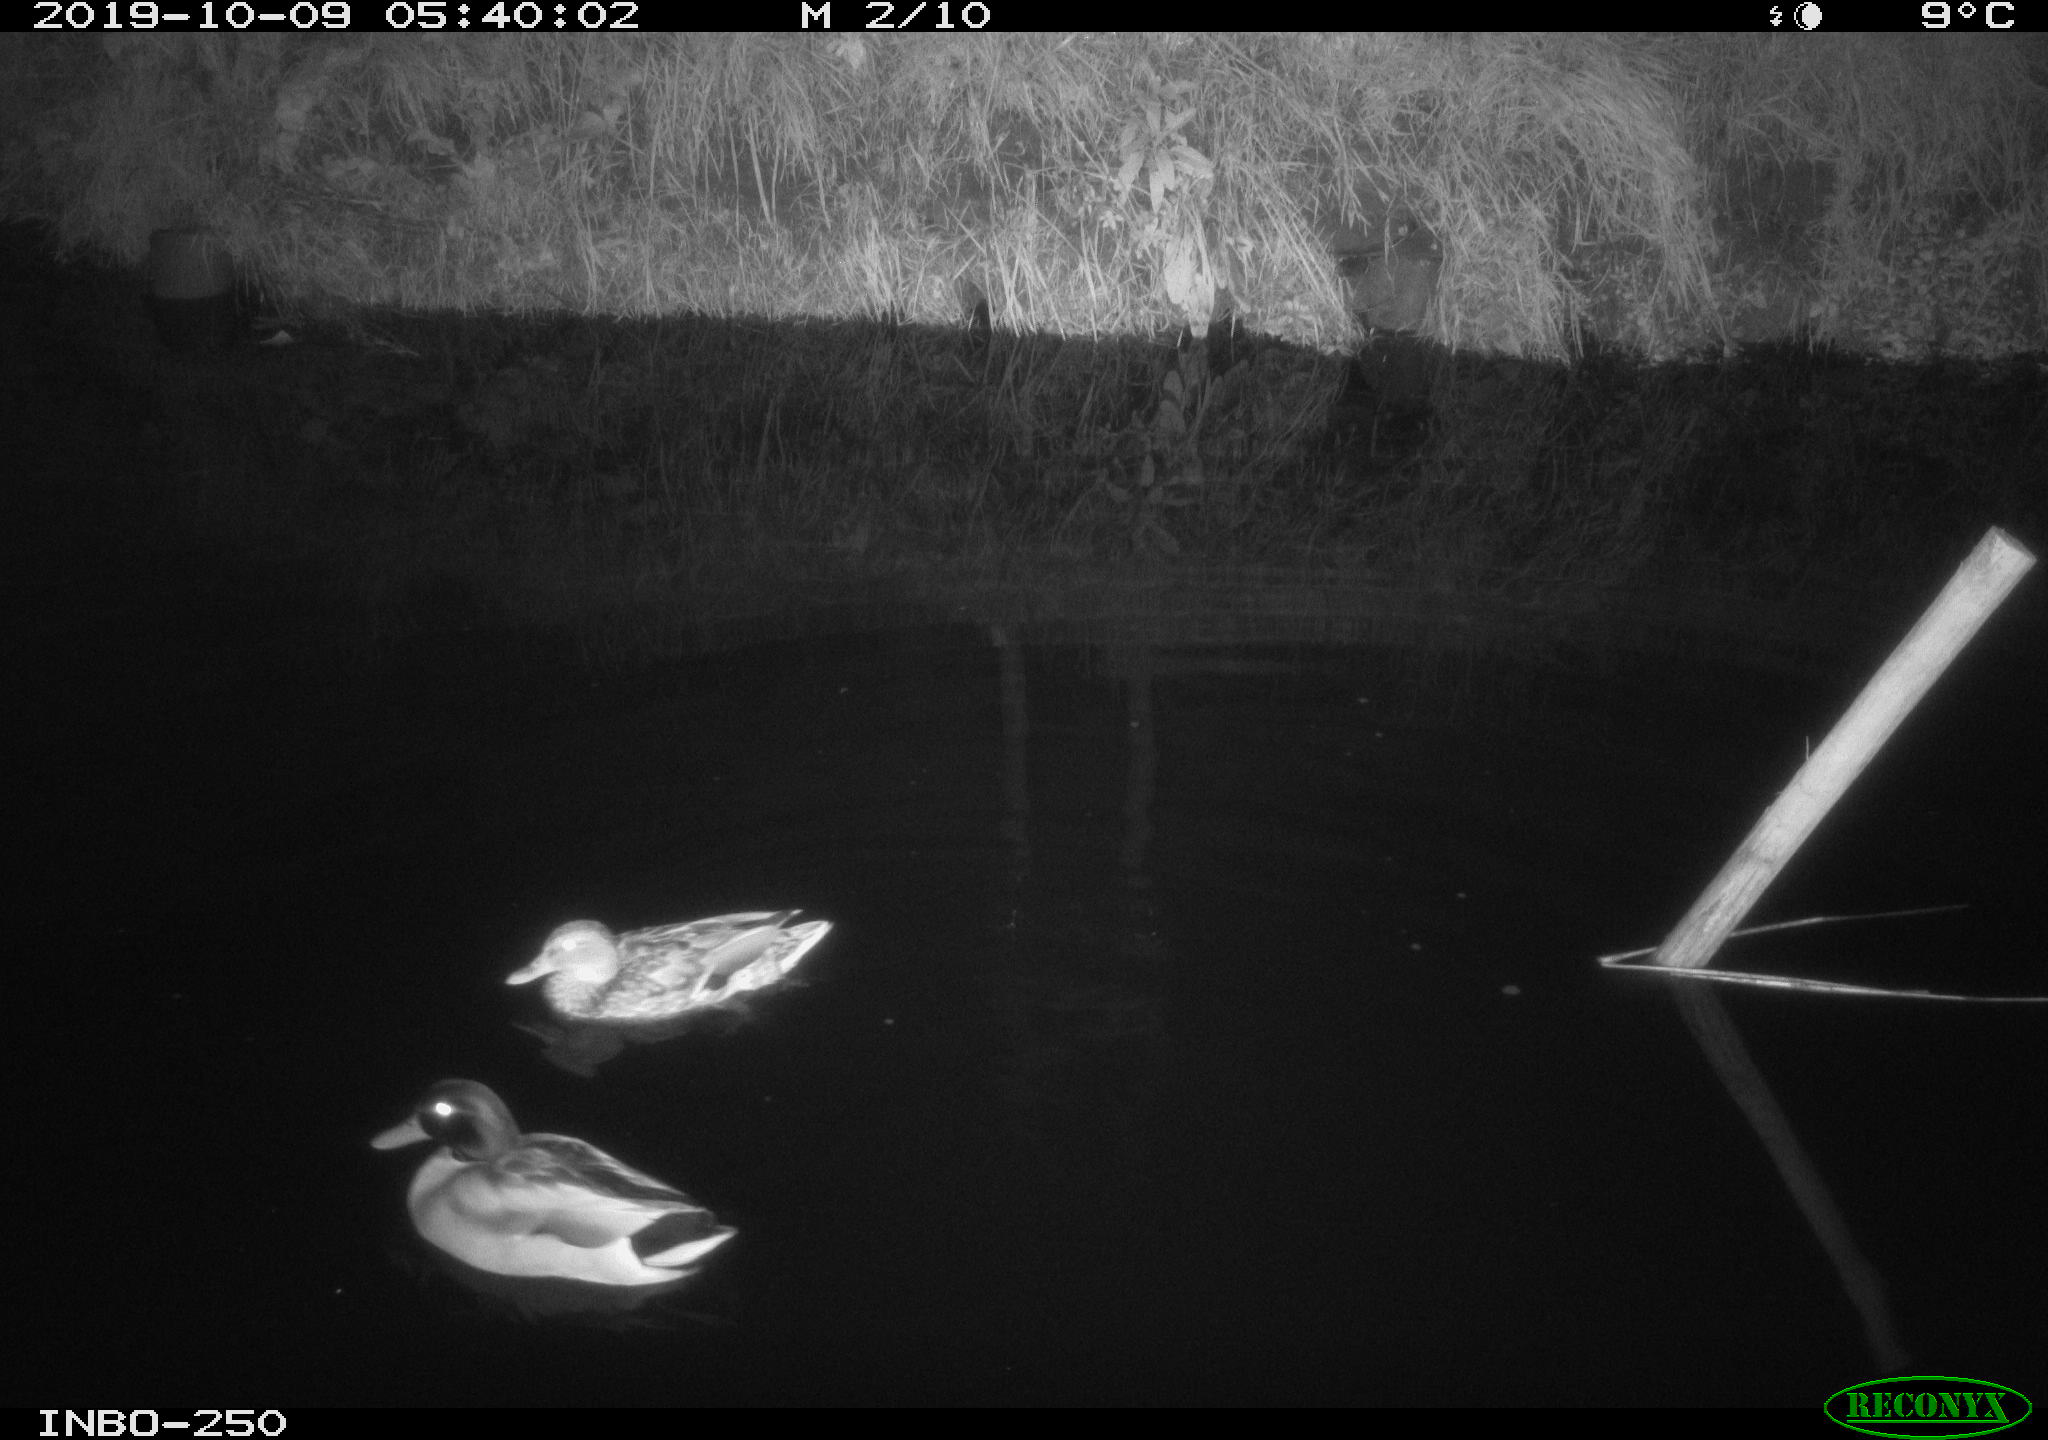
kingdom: Animalia
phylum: Chordata
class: Aves
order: Anseriformes
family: Anatidae
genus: Anas
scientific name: Anas platyrhynchos
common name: Mallard
